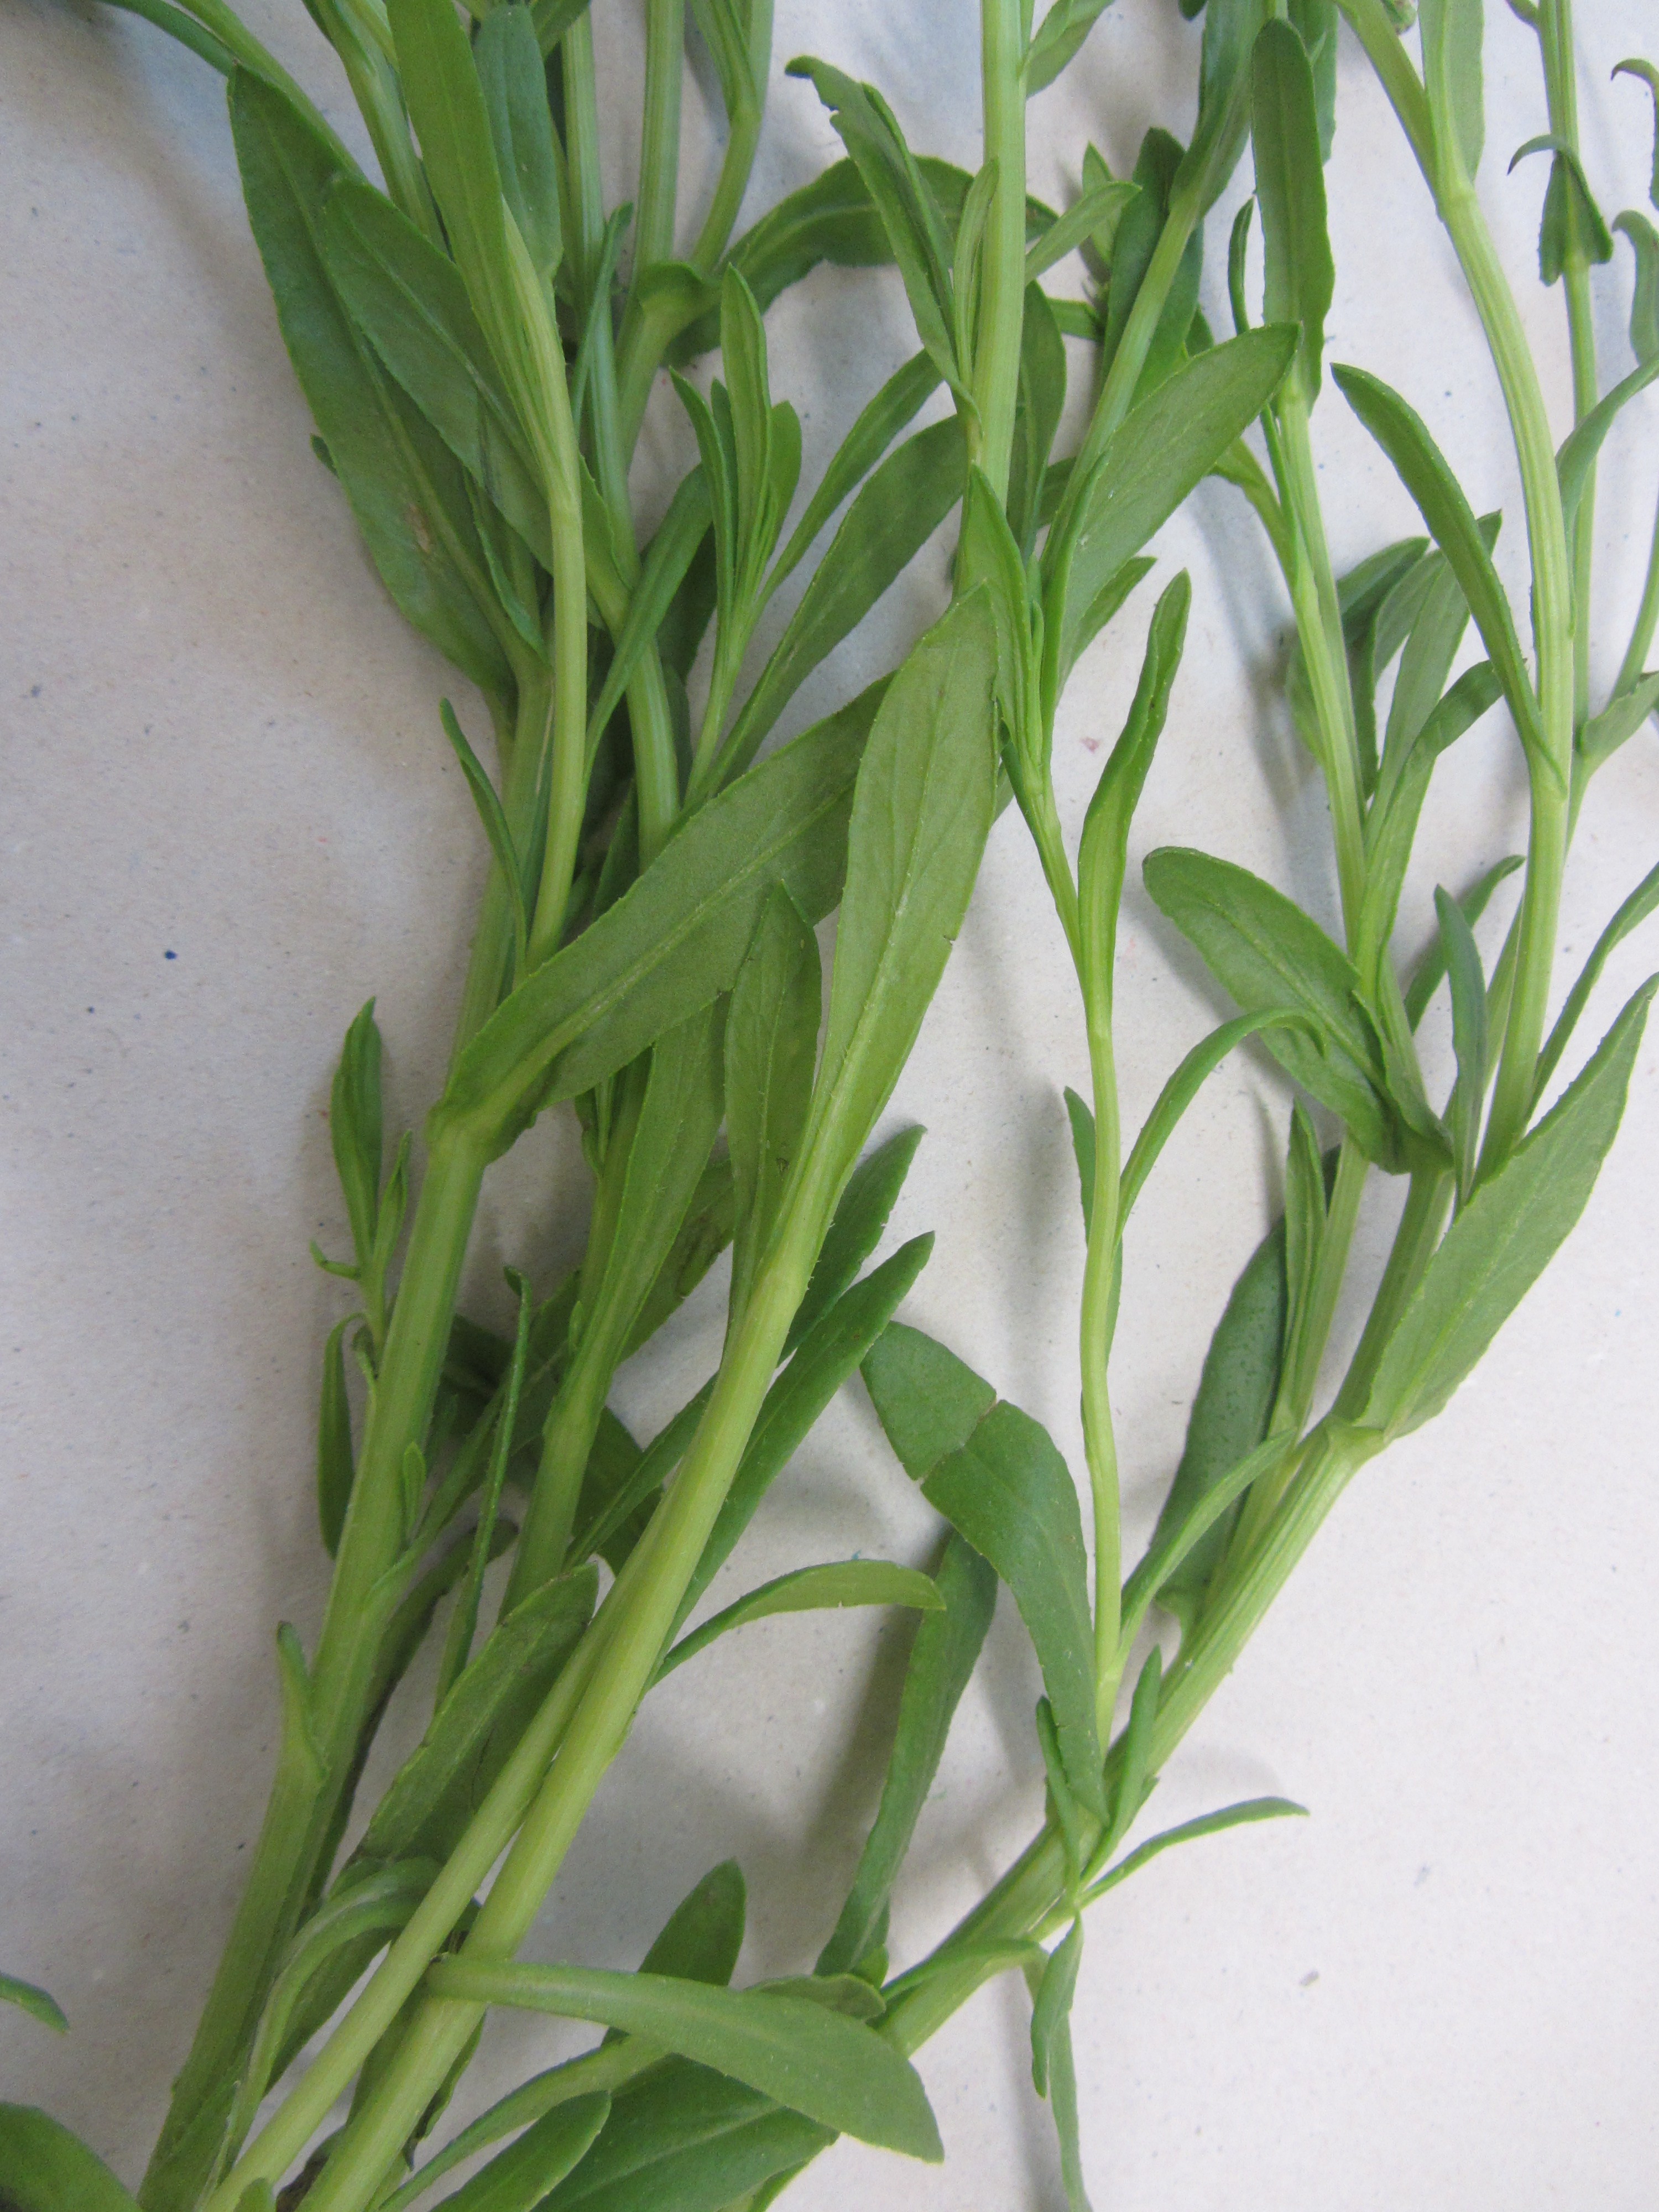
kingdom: Plantae
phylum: Tracheophyta
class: Magnoliopsida
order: Asterales
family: Asteraceae
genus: Senecio
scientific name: Senecio skirrhodon
